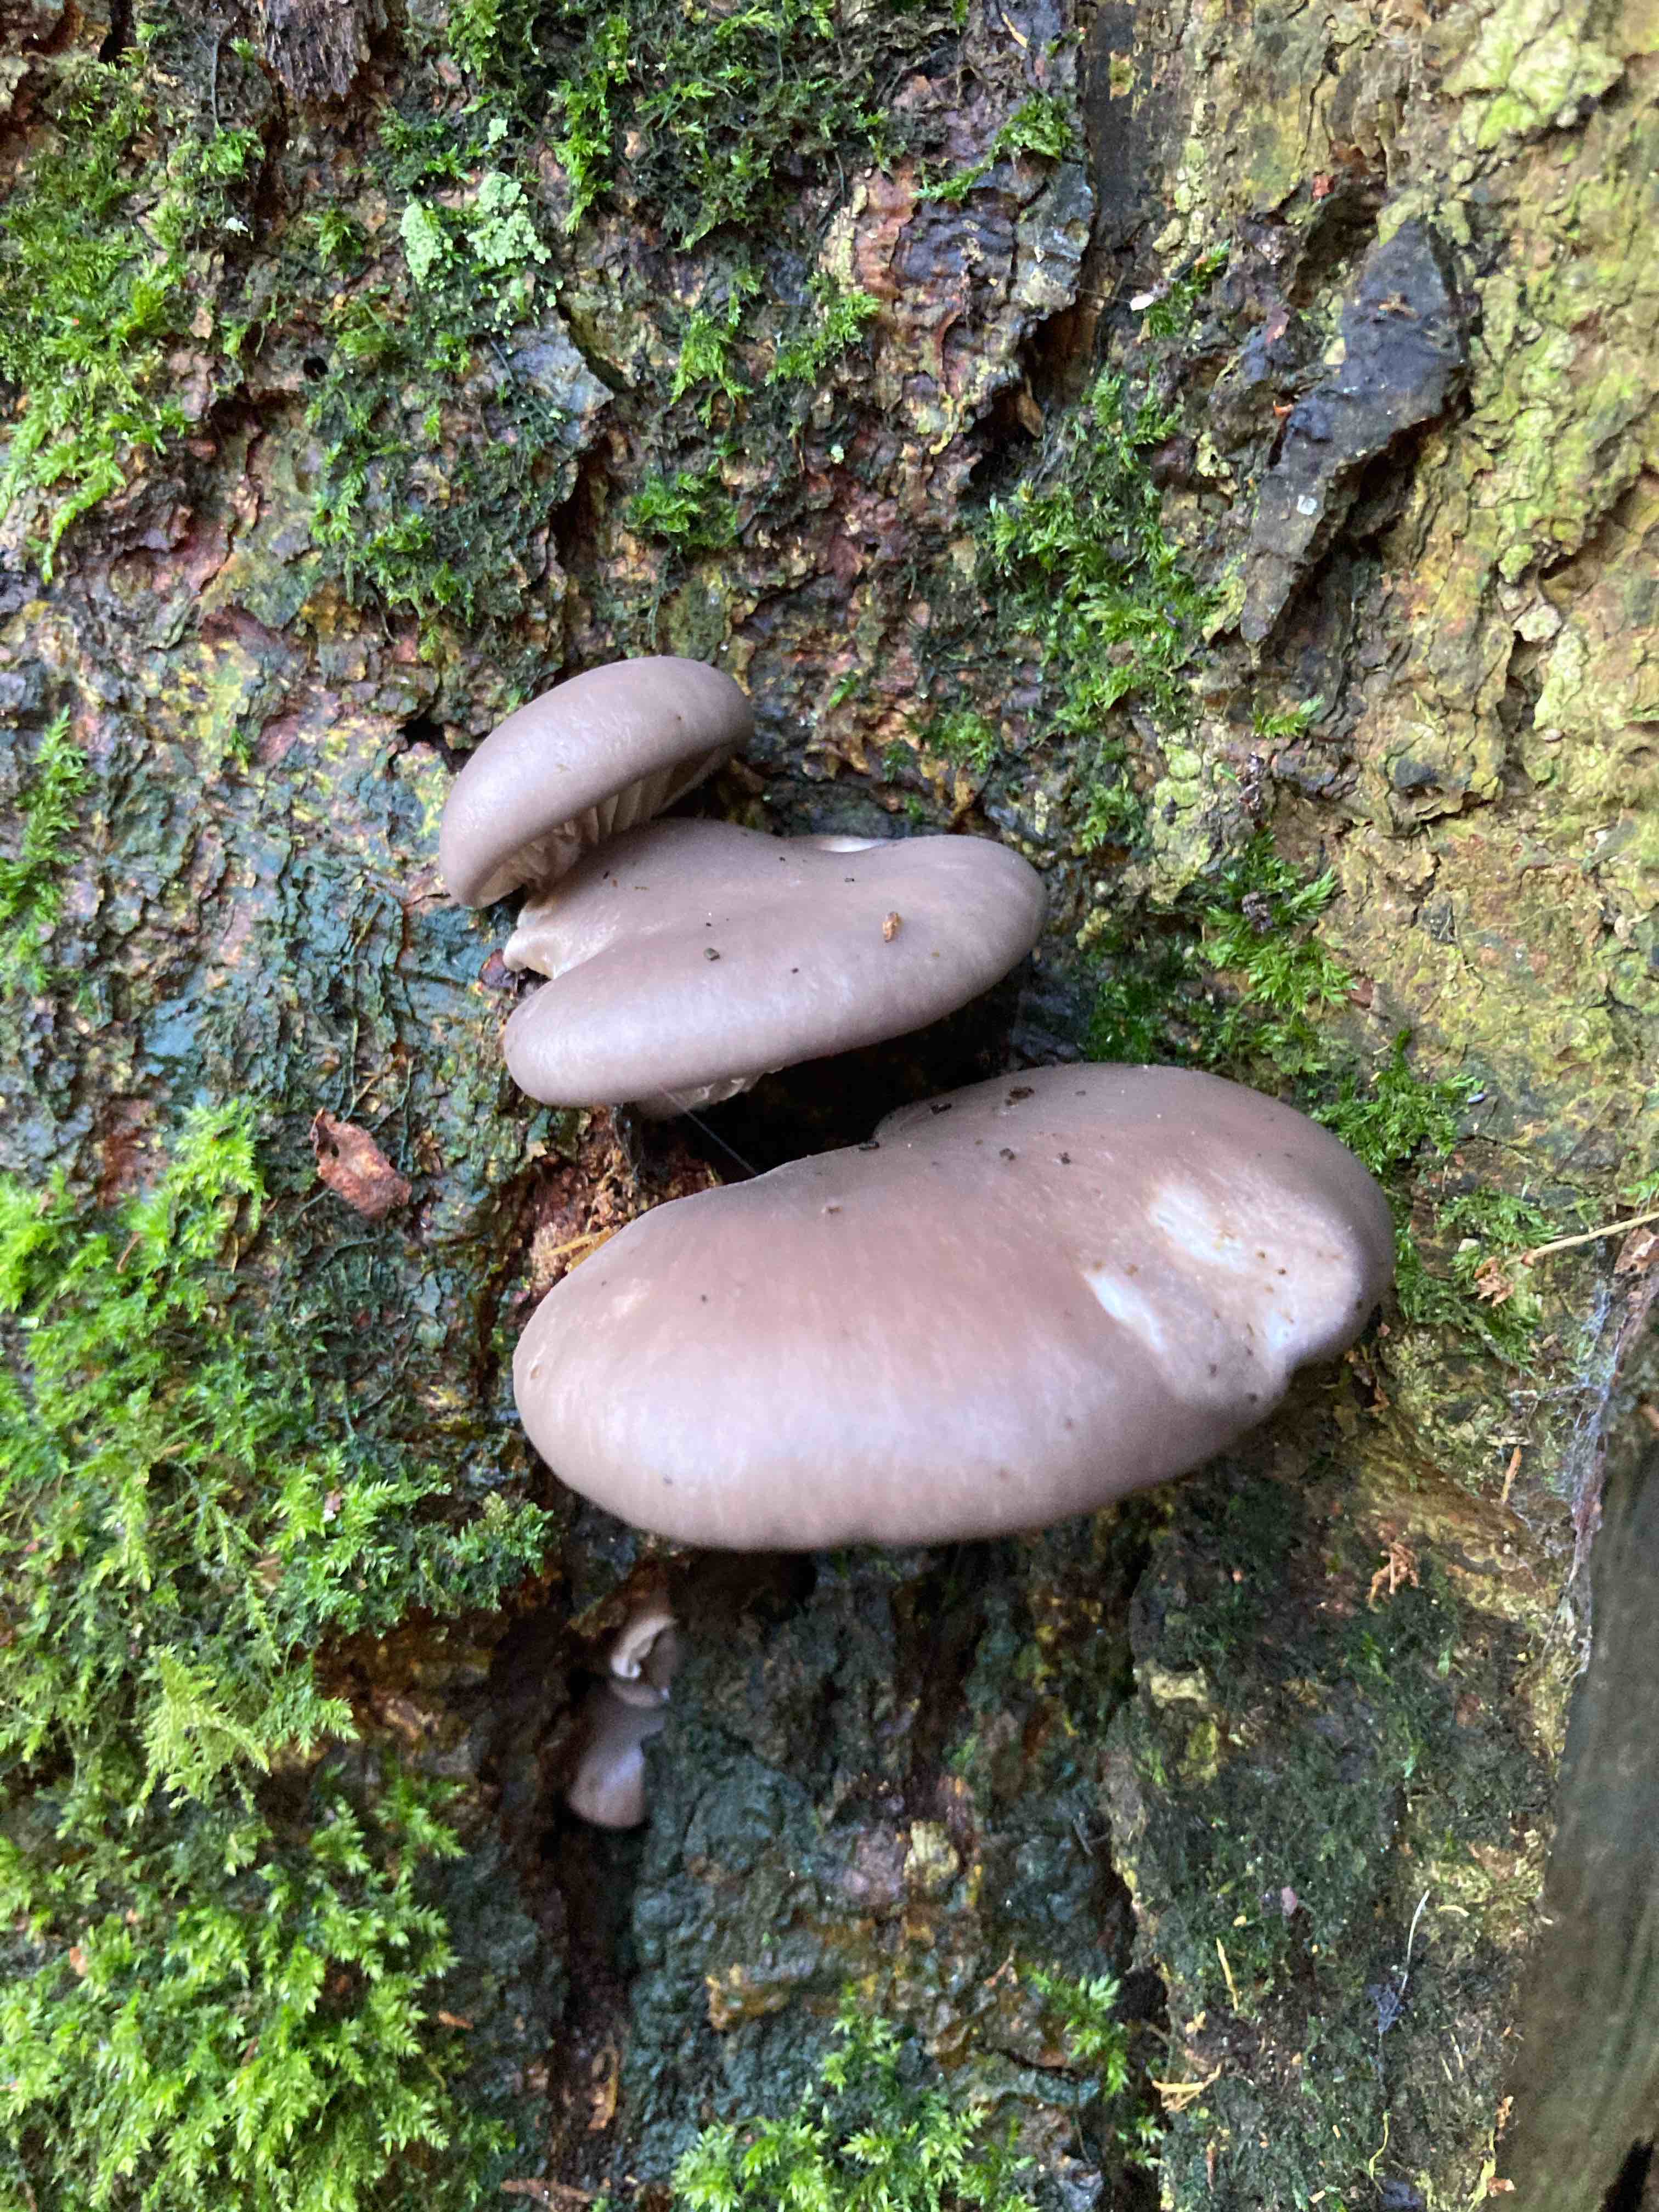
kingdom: Fungi
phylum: Basidiomycota
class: Agaricomycetes
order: Agaricales
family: Pleurotaceae
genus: Pleurotus
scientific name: Pleurotus ostreatus
